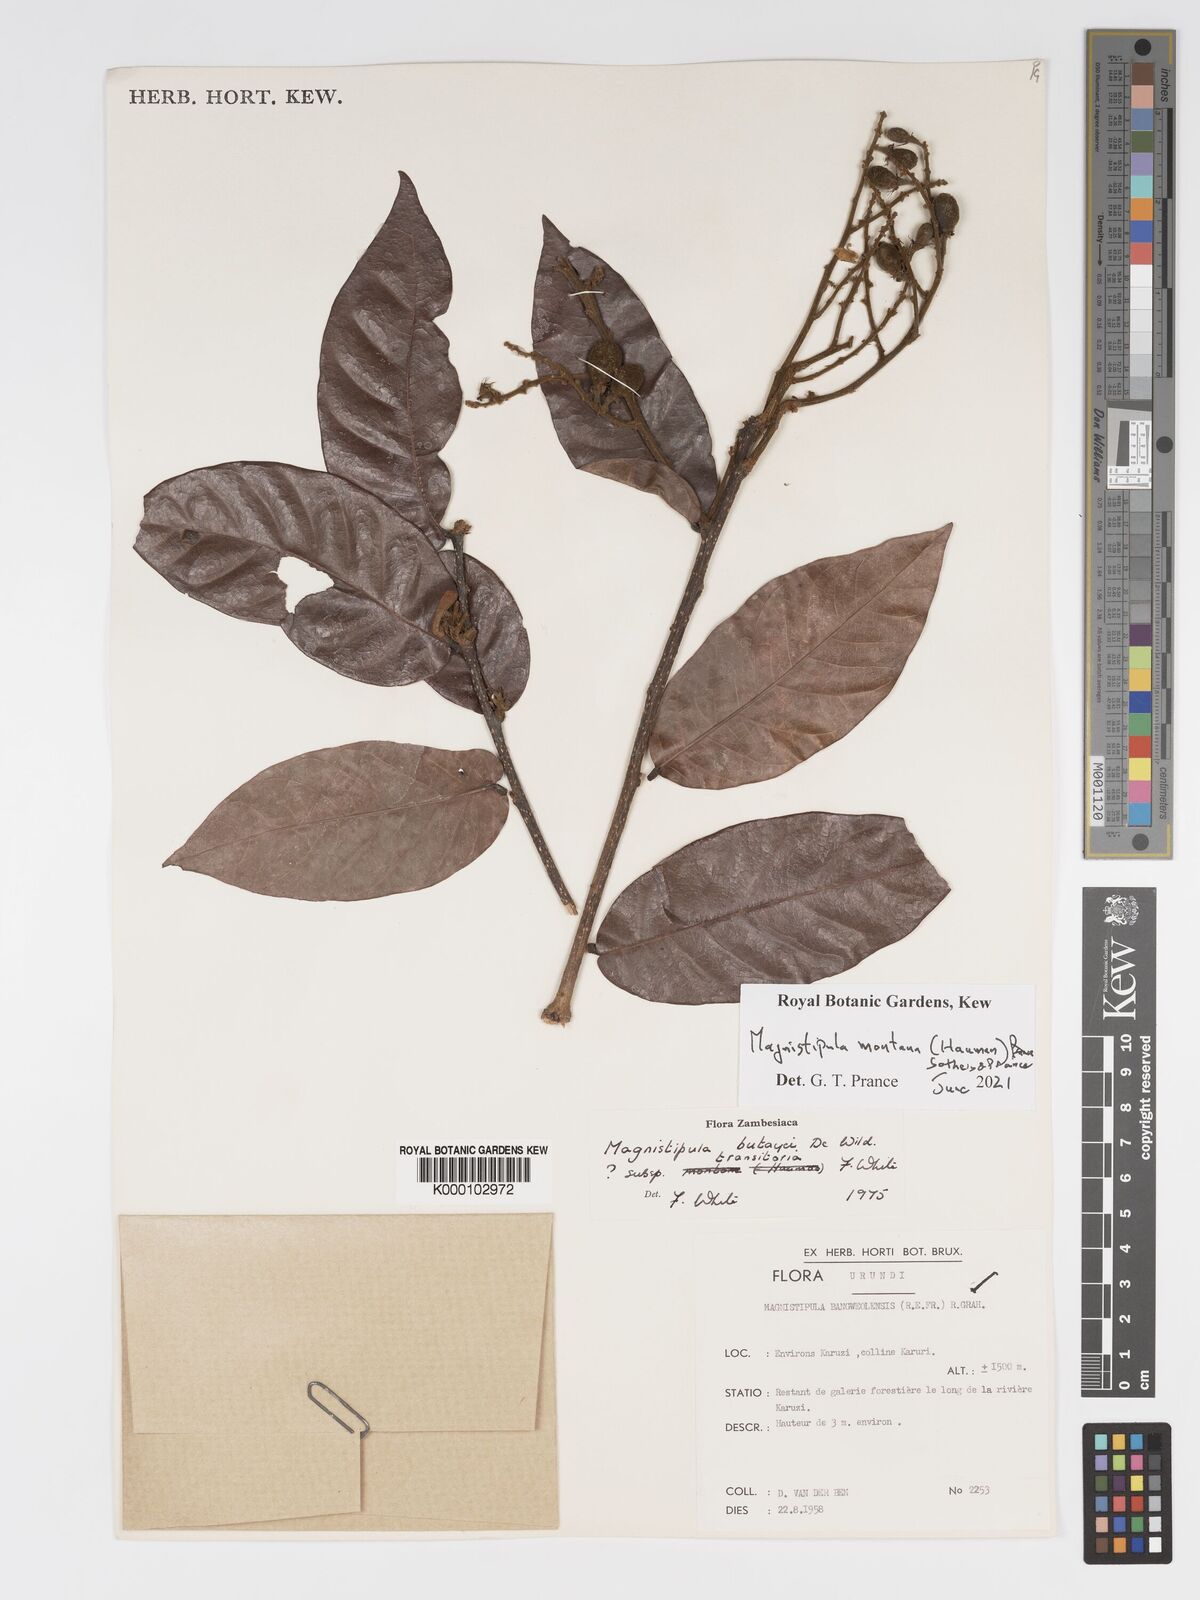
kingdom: Plantae
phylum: Tracheophyta
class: Magnoliopsida
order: Malpighiales
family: Chrysobalanaceae
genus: Magnistipula
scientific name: Magnistipula butayei
